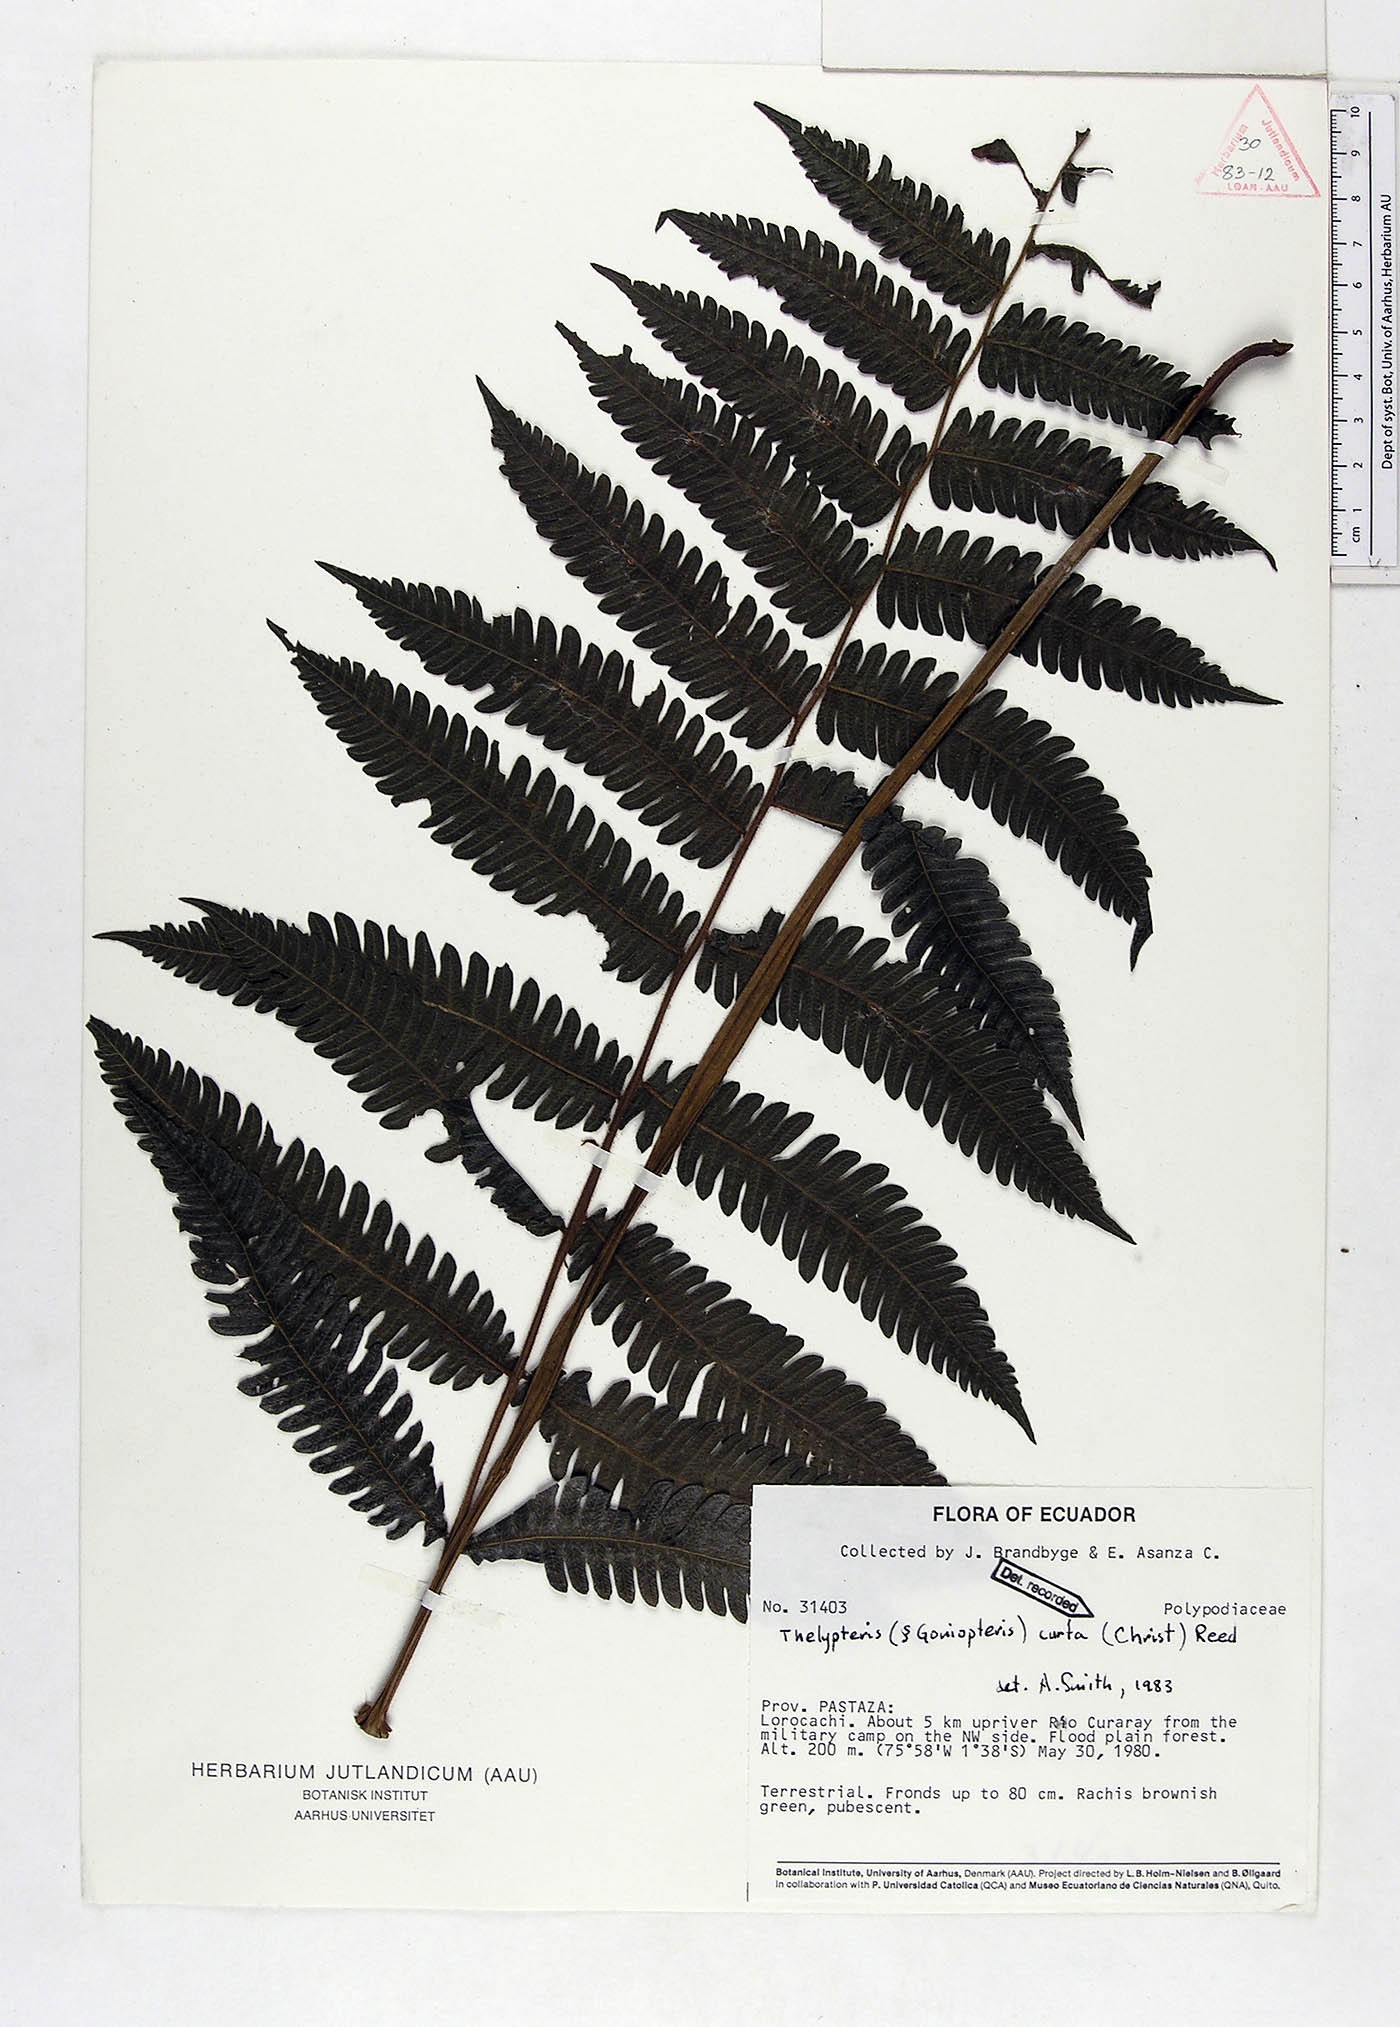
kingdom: Plantae
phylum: Tracheophyta
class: Polypodiopsida
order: Polypodiales
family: Thelypteridaceae
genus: Goniopteris
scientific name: Goniopteris curta
